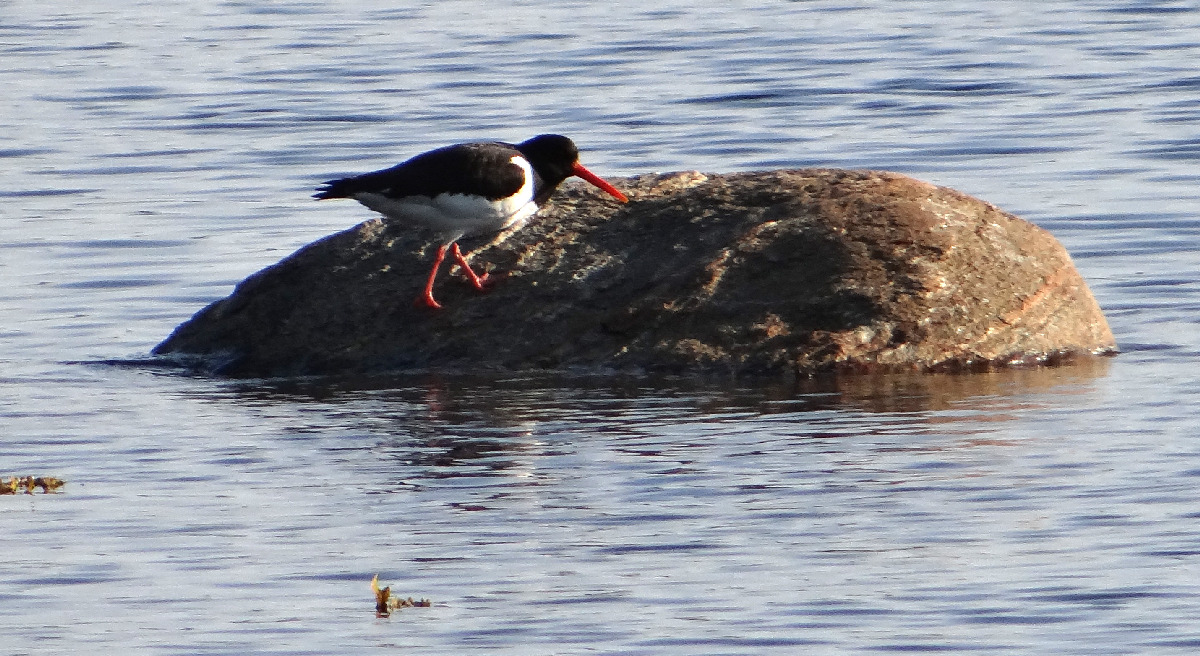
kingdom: Animalia
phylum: Chordata
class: Aves
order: Charadriiformes
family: Haematopodidae
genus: Haematopus
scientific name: Haematopus ostralegus
